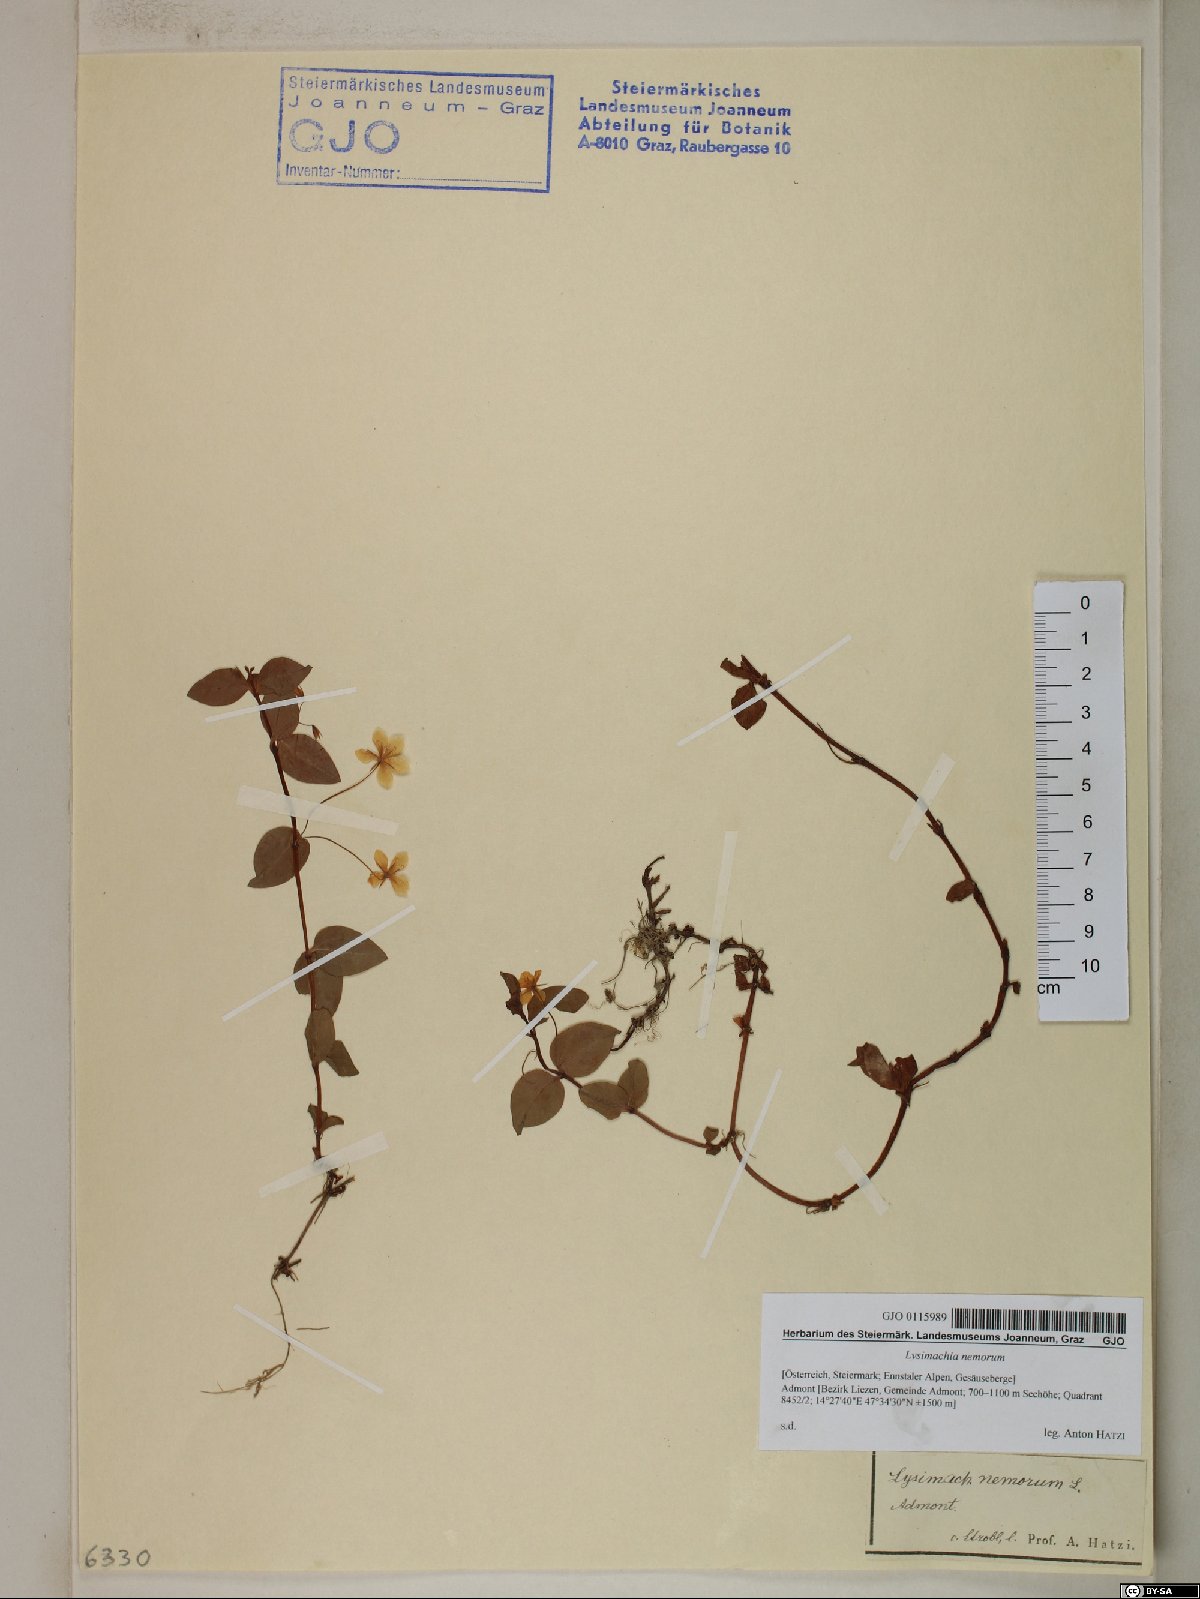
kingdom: Plantae
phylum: Tracheophyta
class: Magnoliopsida
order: Ericales
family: Primulaceae
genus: Lysimachia
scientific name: Lysimachia nemorum
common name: Yellow pimpernel
